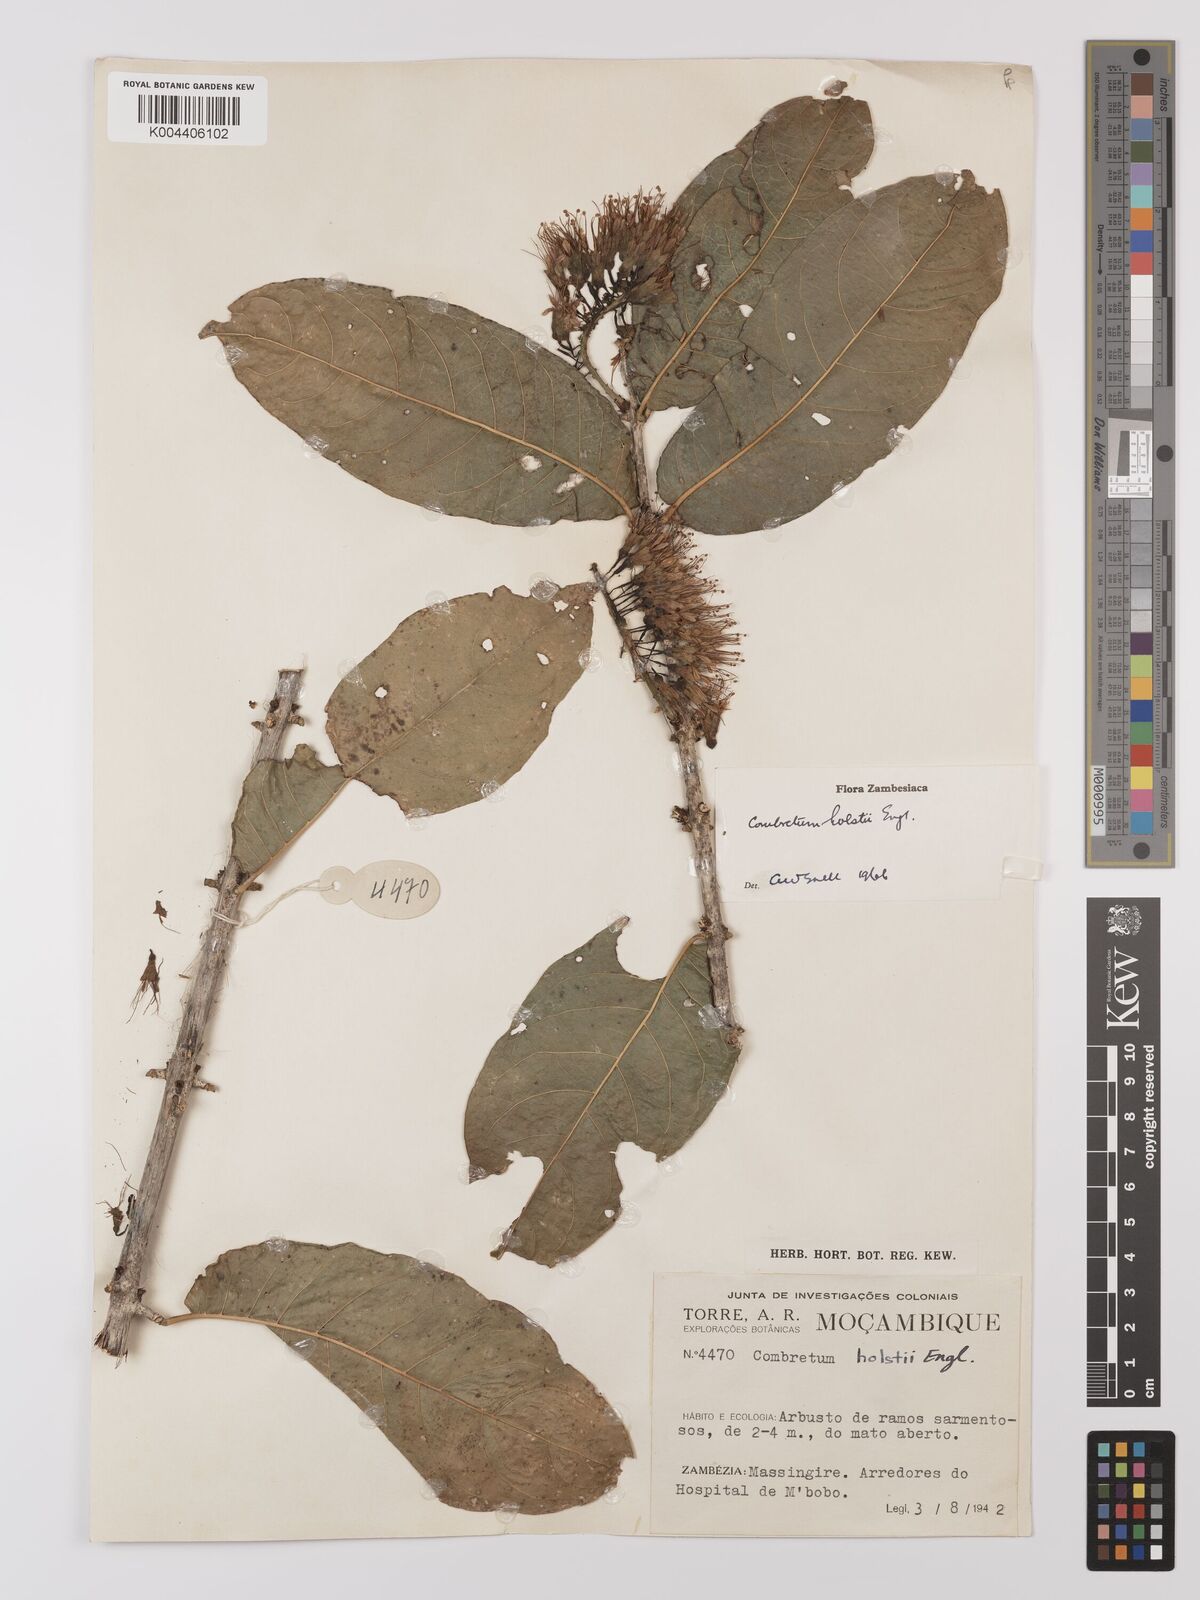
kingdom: Plantae
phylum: Tracheophyta
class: Magnoliopsida
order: Myrtales
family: Combretaceae
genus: Combretum
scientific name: Combretum holstii
